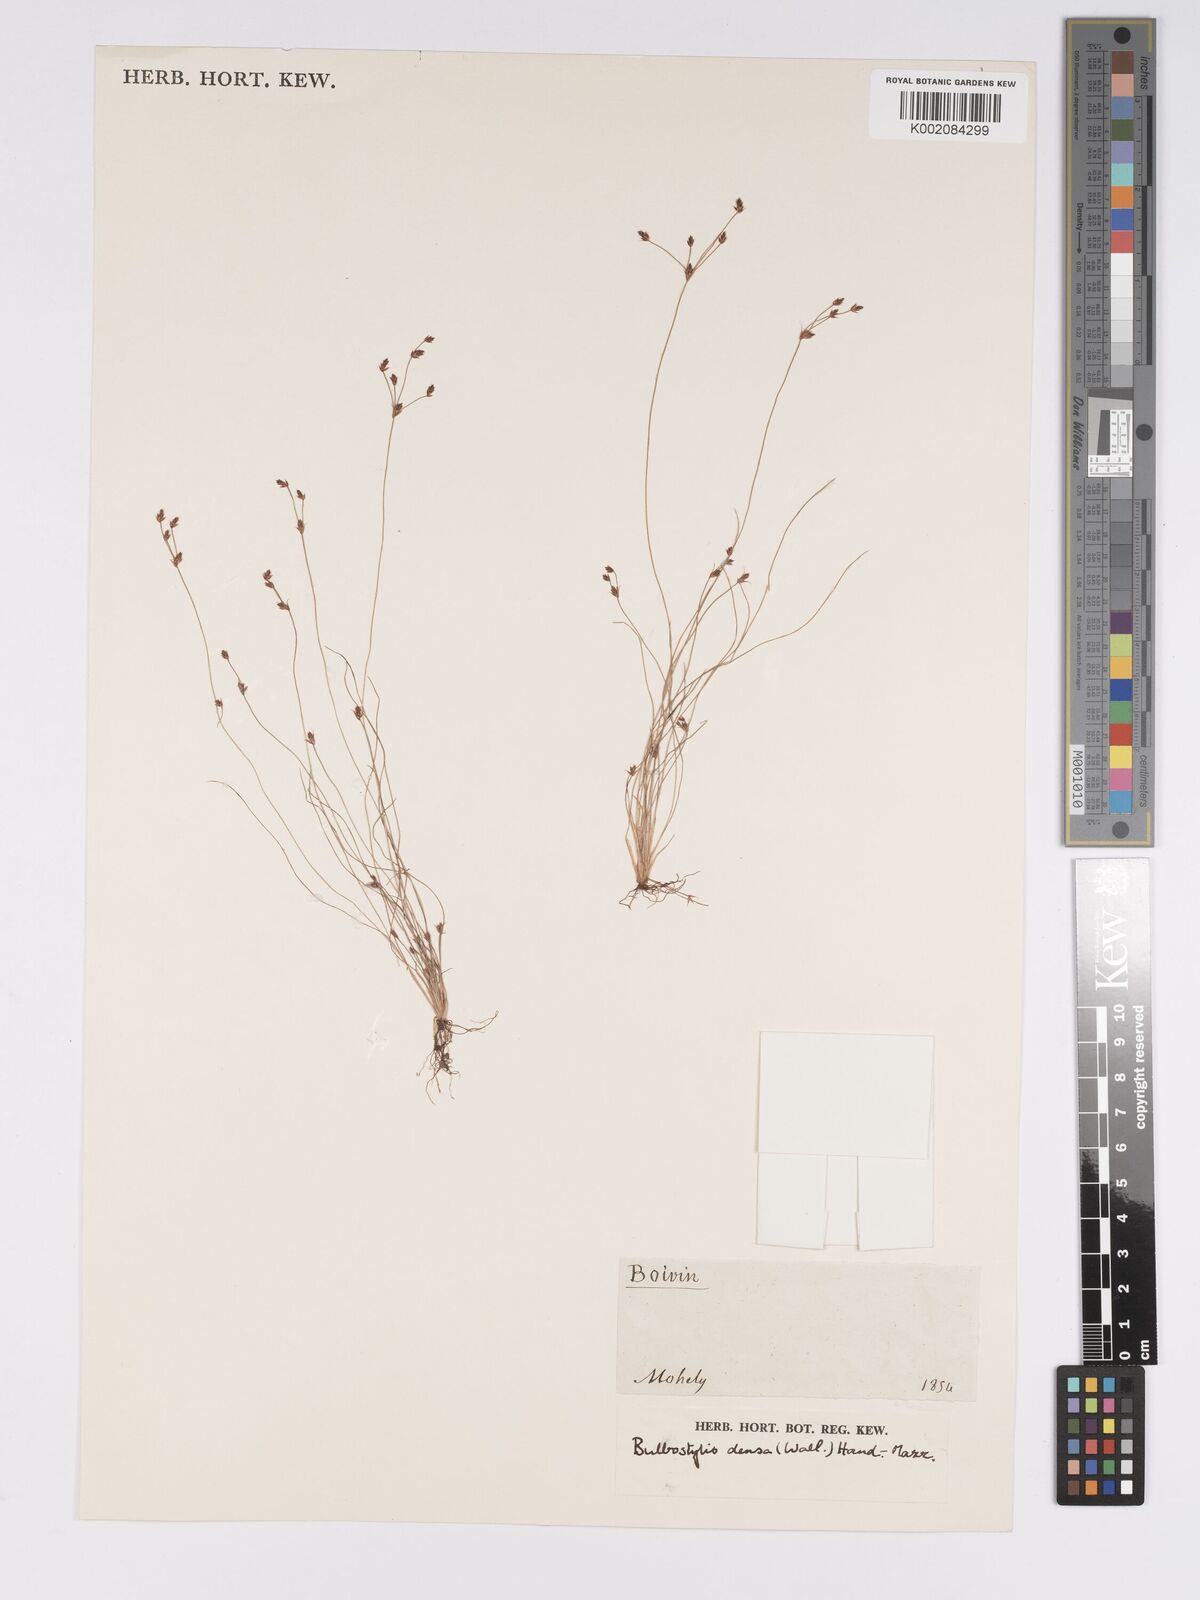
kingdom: Plantae
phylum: Tracheophyta
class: Liliopsida
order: Poales
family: Cyperaceae
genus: Bulbostylis
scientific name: Bulbostylis densa
